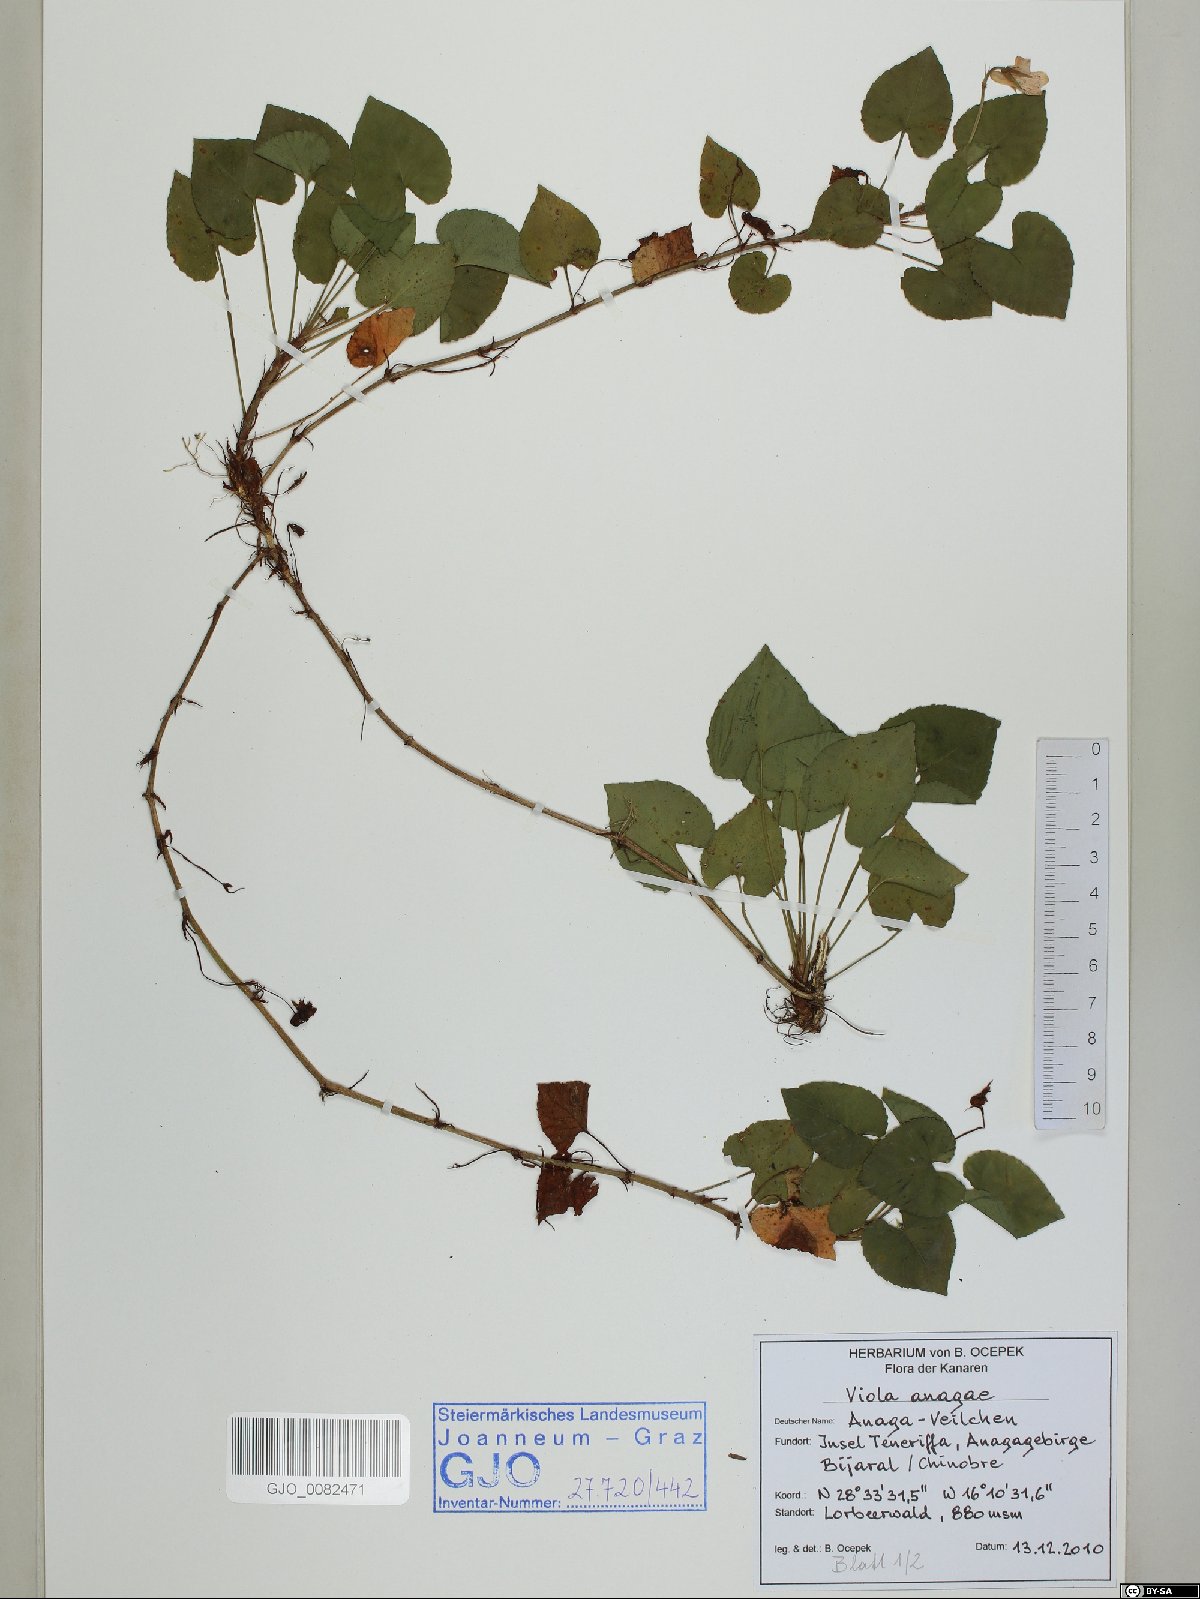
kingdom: Plantae
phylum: Tracheophyta
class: Magnoliopsida
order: Malpighiales
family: Violaceae
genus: Viola
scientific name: Viola anagae
